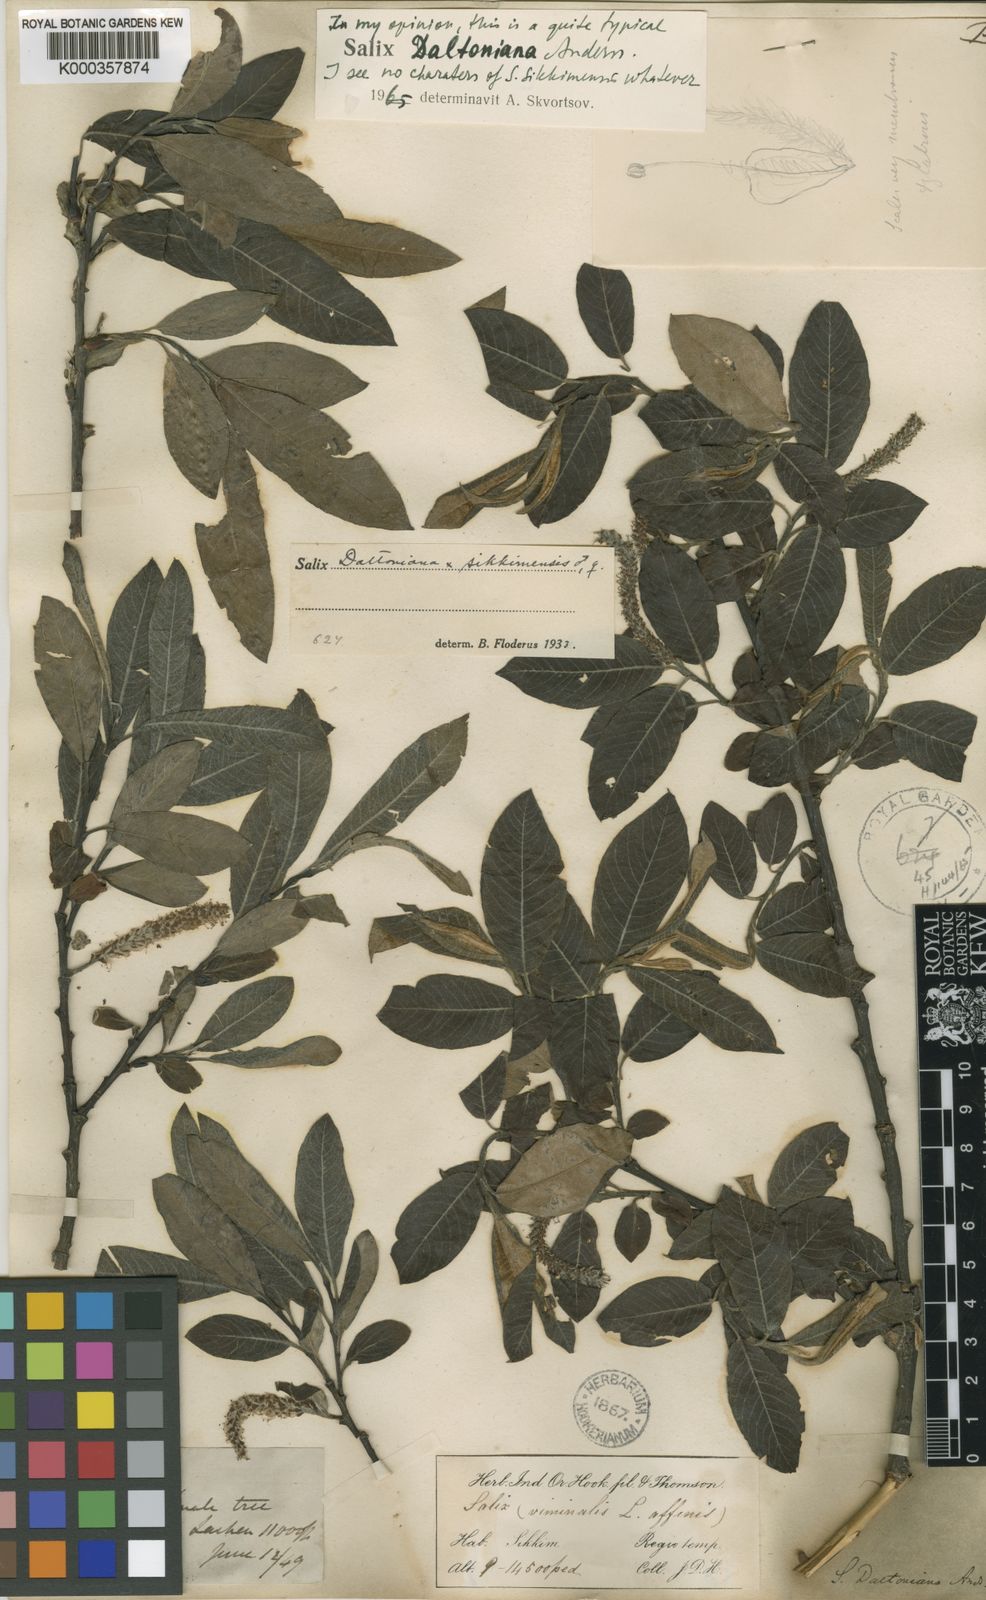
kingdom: Plantae
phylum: Tracheophyta
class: Magnoliopsida
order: Malpighiales
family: Salicaceae
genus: Salix
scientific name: Salix daltoniana
